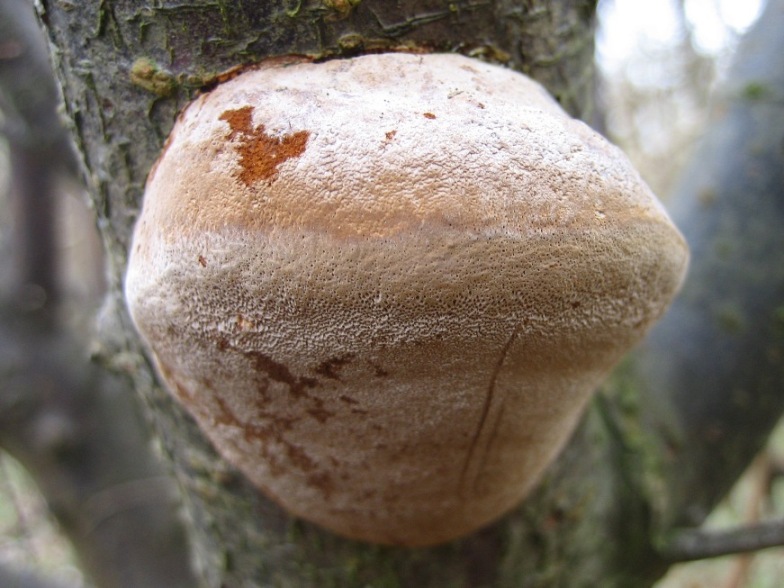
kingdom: Fungi
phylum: Basidiomycota
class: Agaricomycetes
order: Hymenochaetales
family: Hymenochaetaceae
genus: Phellinus
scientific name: Phellinus pomaceus
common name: blomme-ildporesvamp
